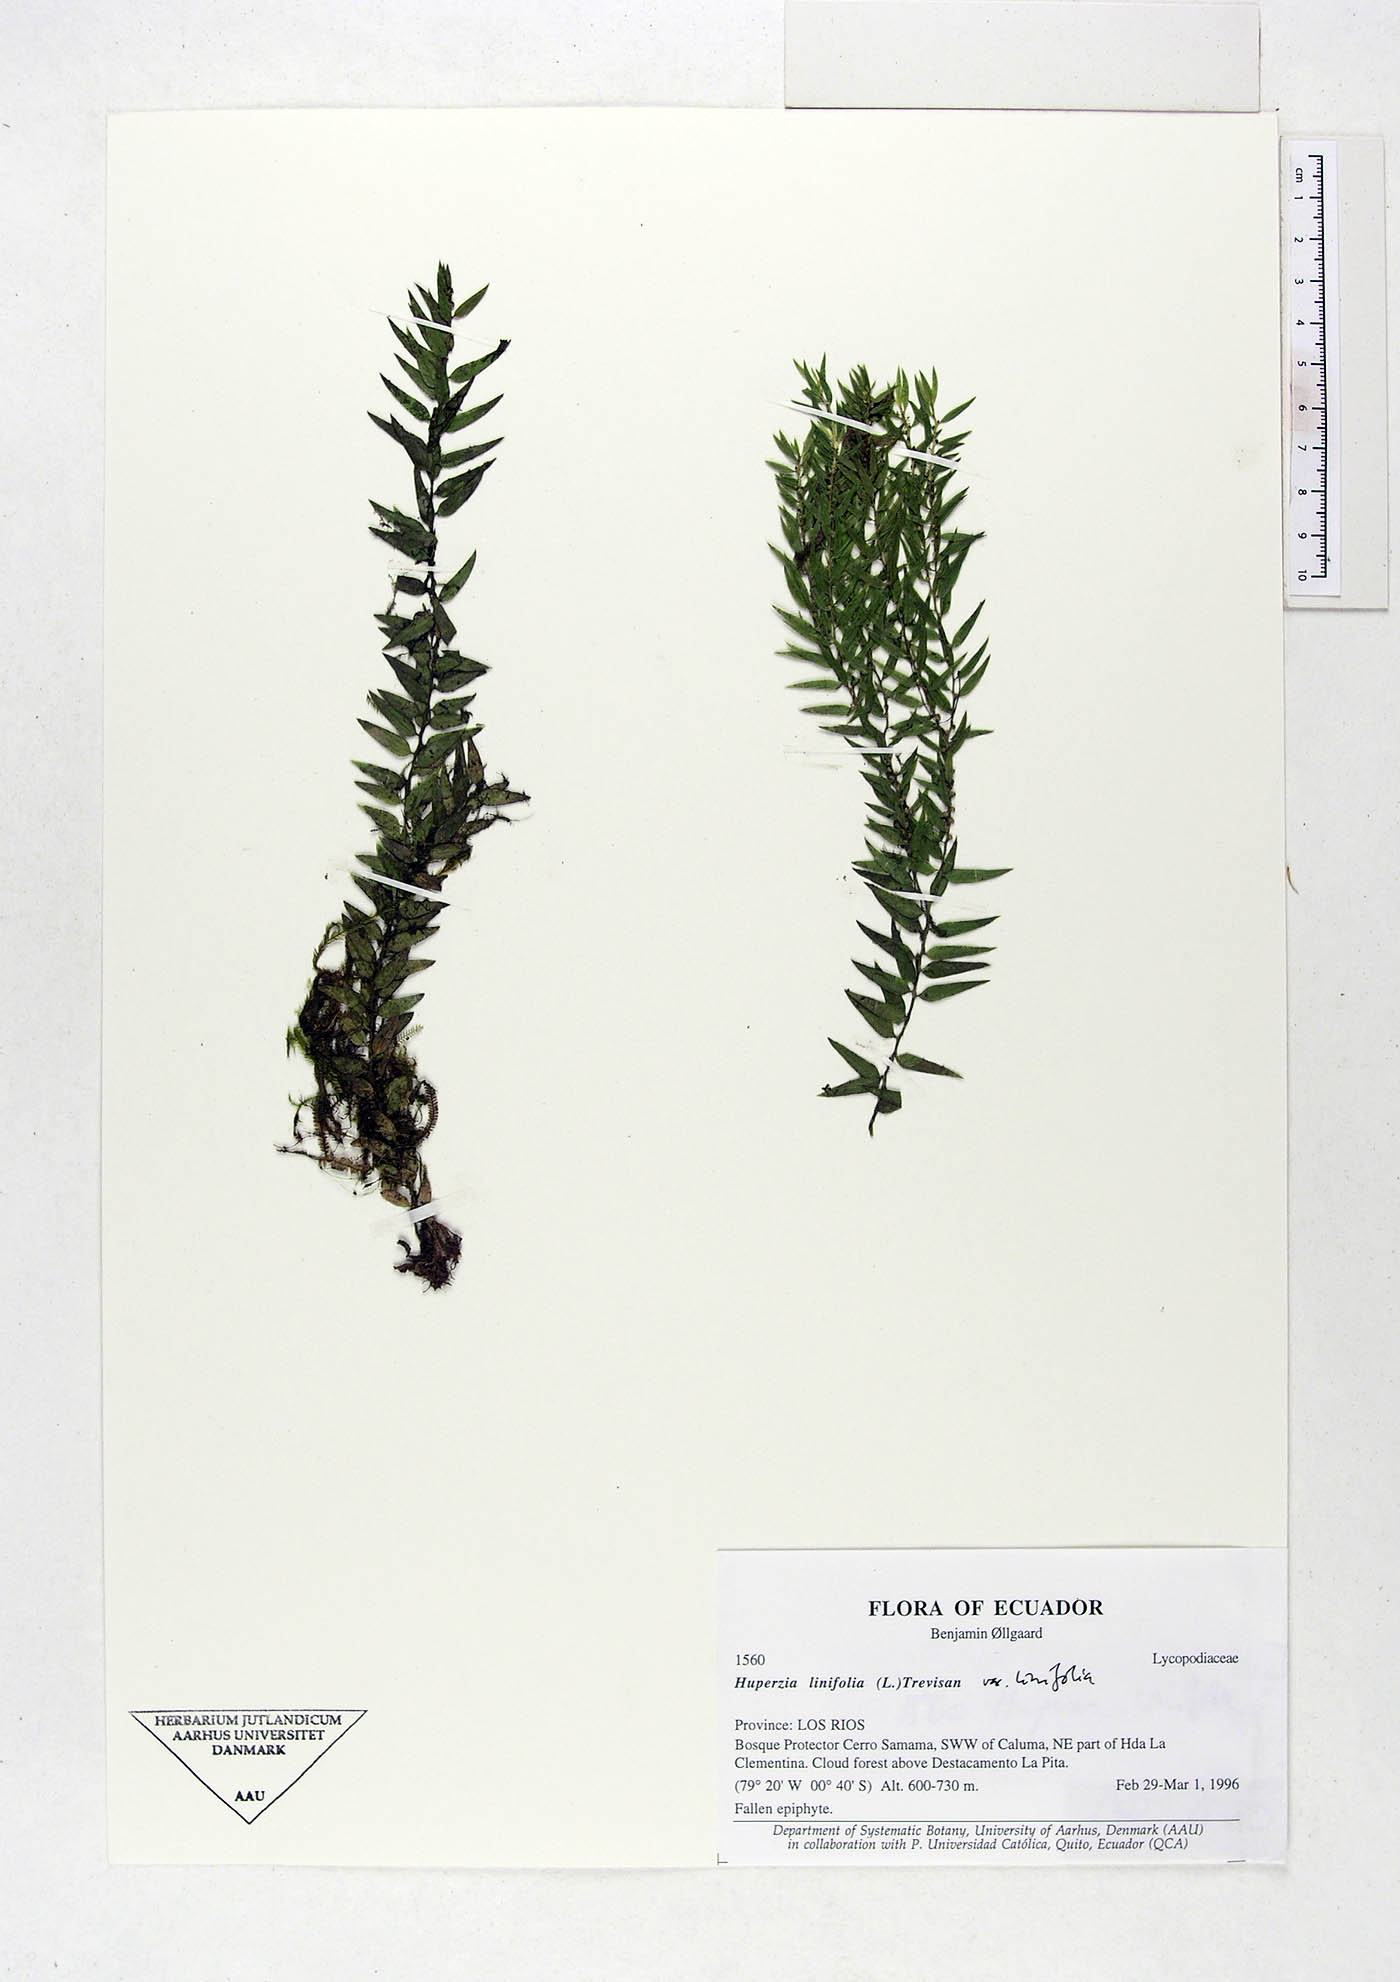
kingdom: Plantae
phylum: Tracheophyta
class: Lycopodiopsida
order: Lycopodiales
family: Lycopodiaceae
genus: Phlegmariurus
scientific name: Phlegmariurus linifolius
